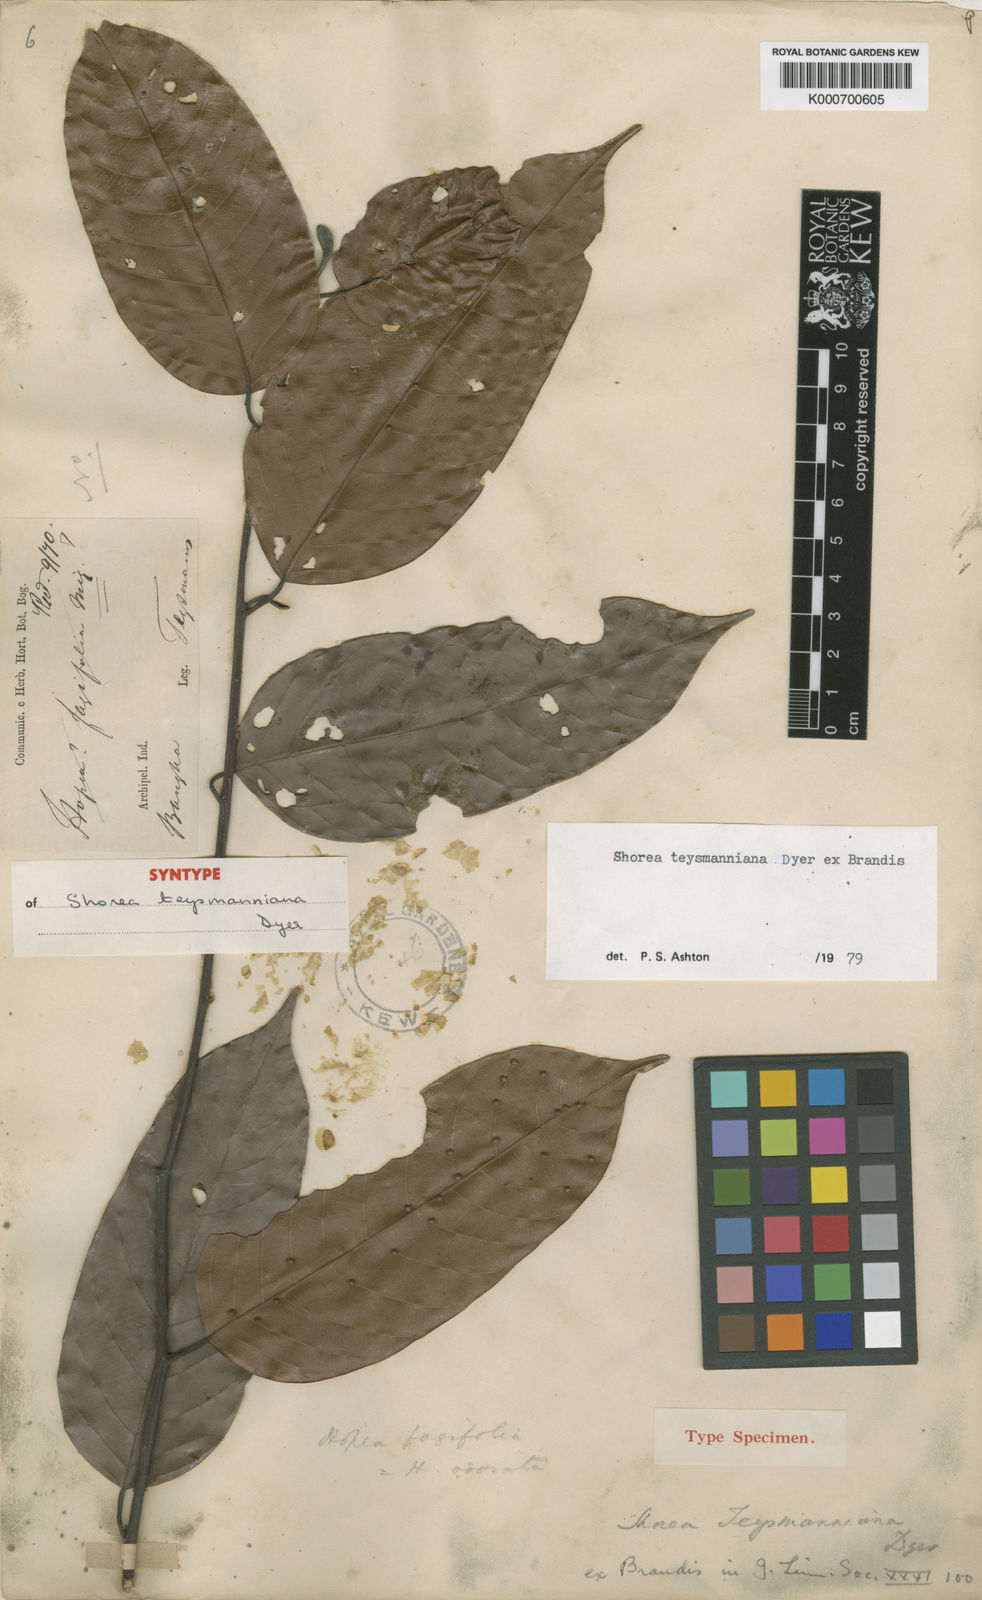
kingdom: Plantae
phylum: Tracheophyta
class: Magnoliopsida
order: Malvales
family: Dipterocarpaceae
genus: Shorea
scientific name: Shorea teysmanniana
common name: Light red meranti
